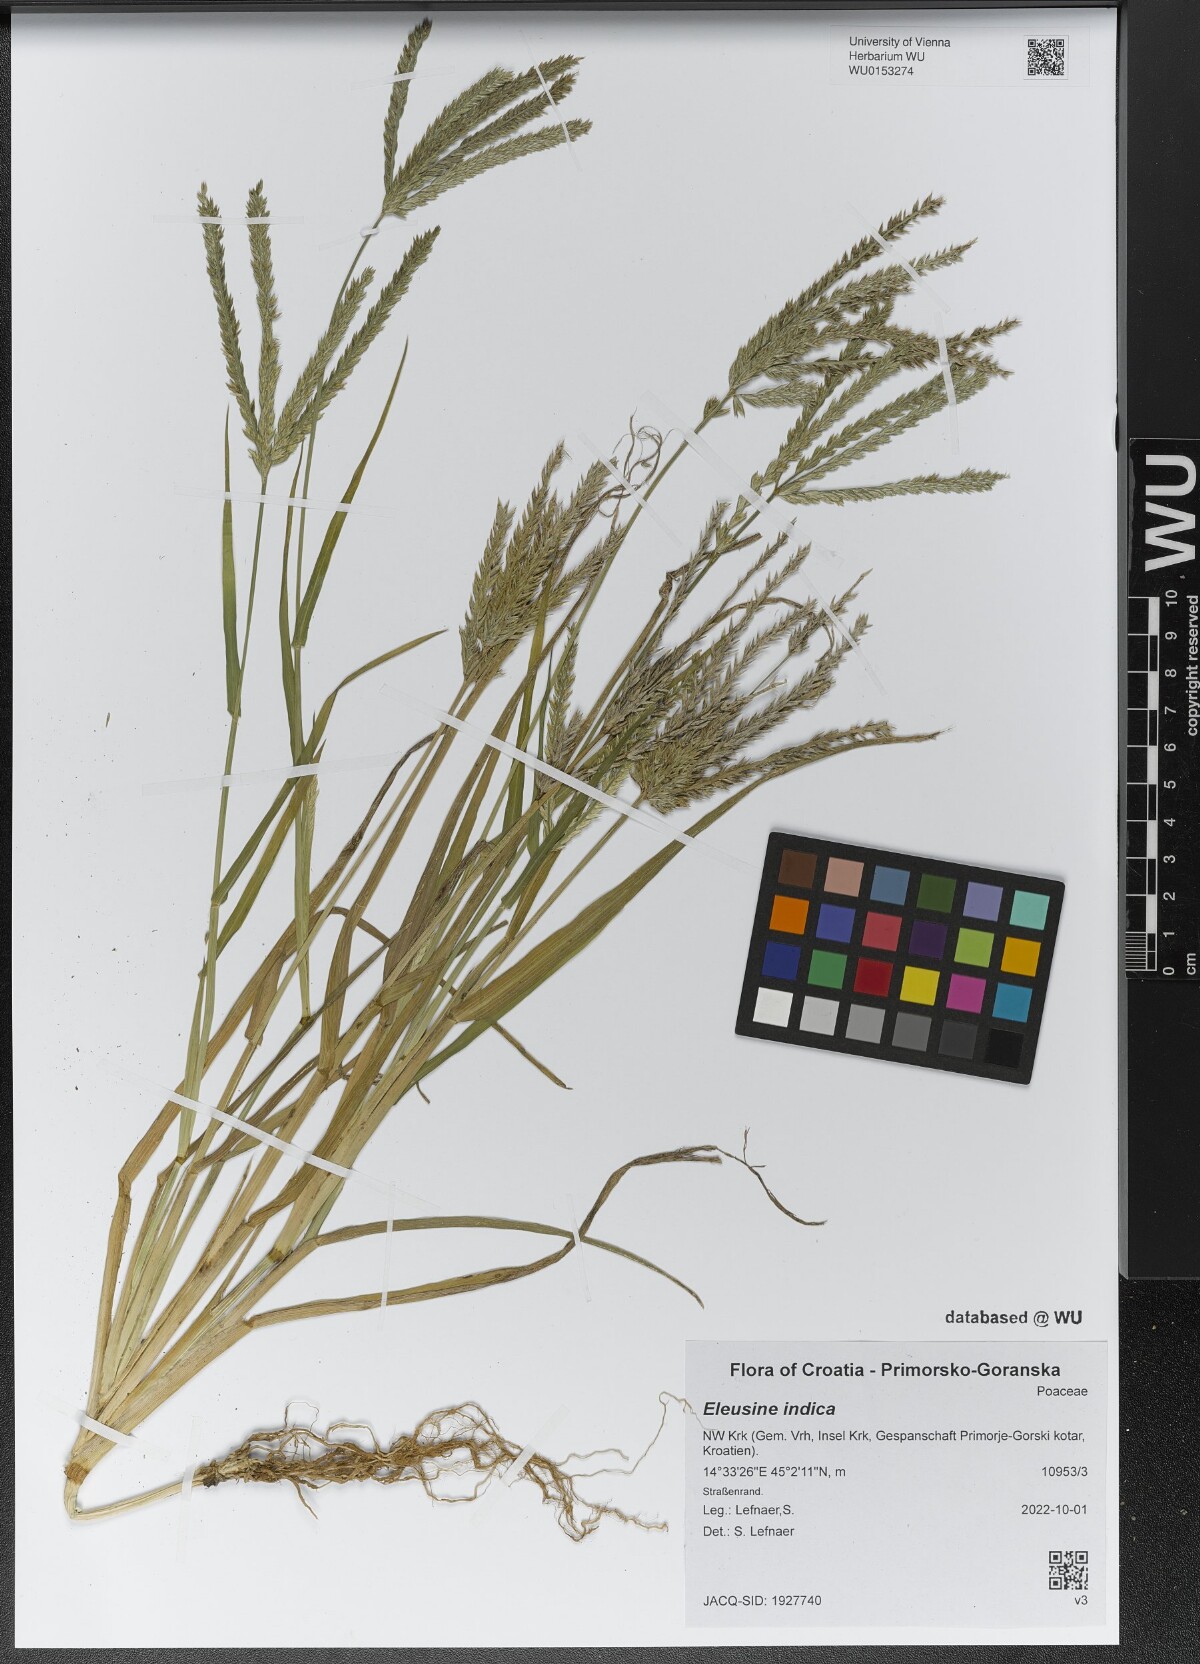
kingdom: Plantae
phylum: Tracheophyta
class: Liliopsida
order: Poales
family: Poaceae
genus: Eleusine
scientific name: Eleusine indica
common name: Yard-grass
